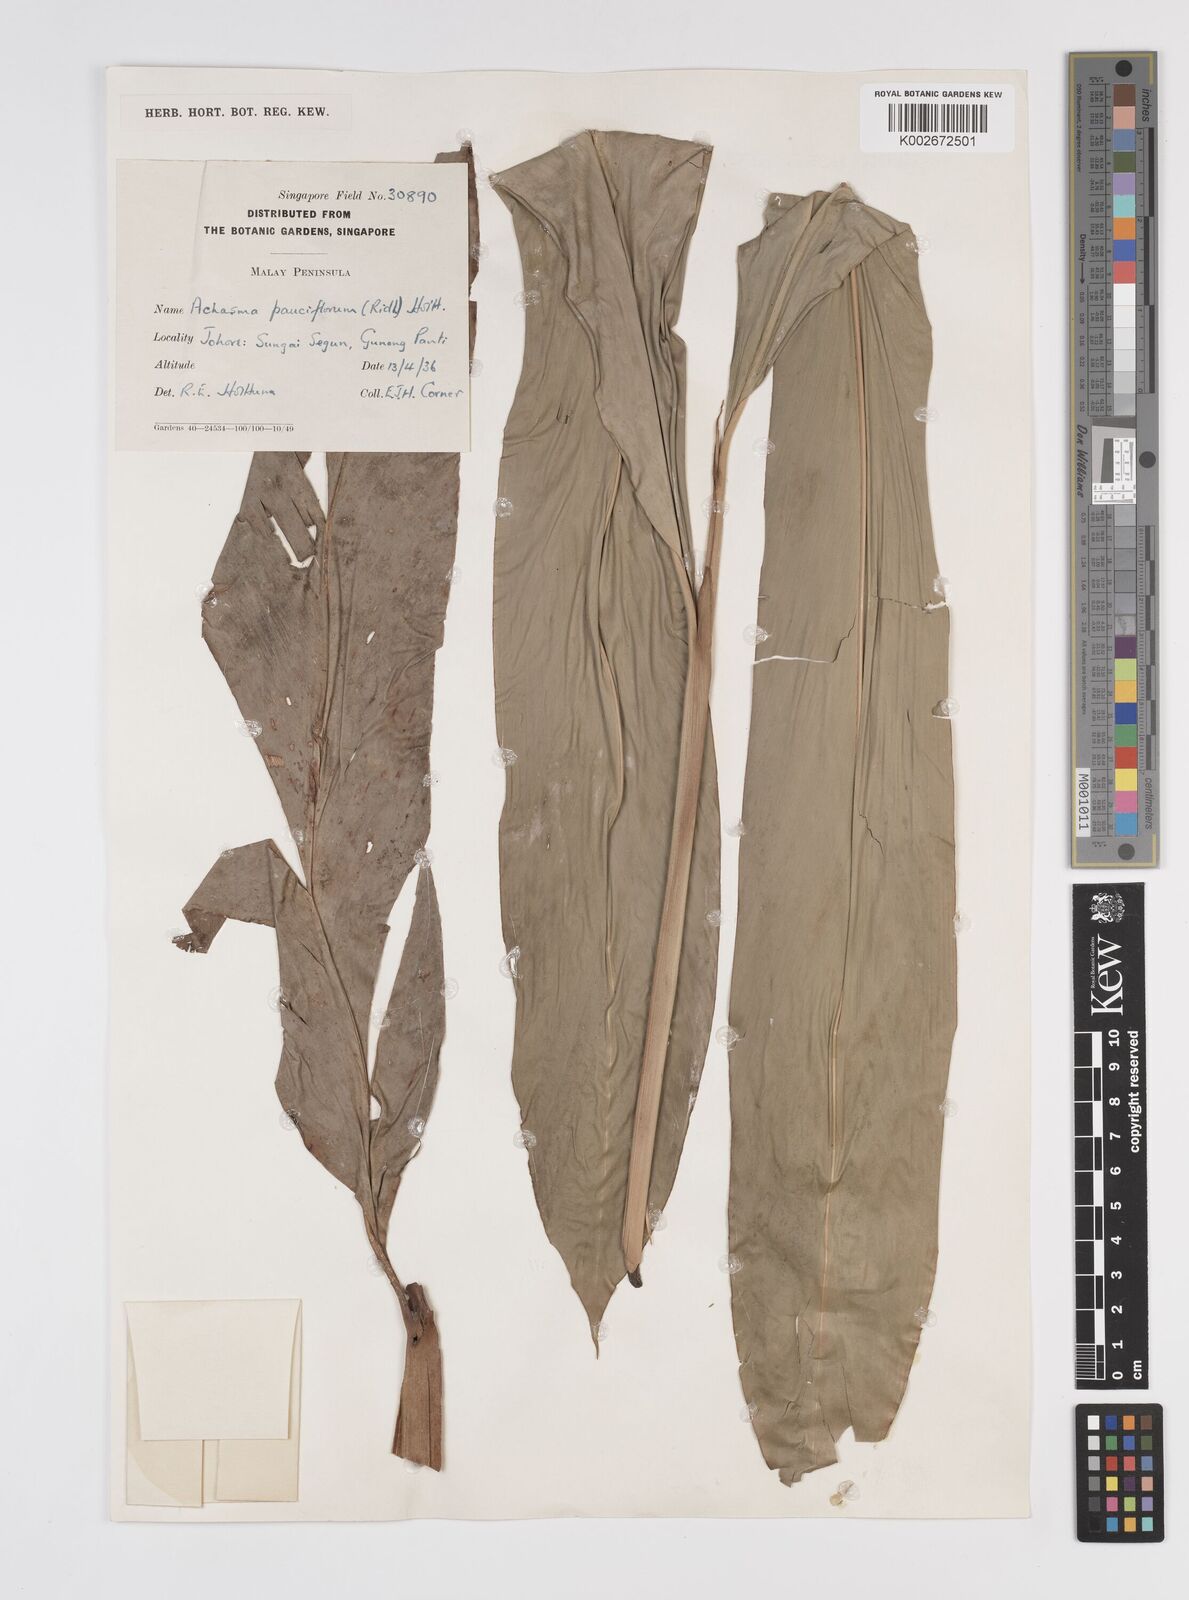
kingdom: Plantae
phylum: Tracheophyta
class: Liliopsida
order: Zingiberales
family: Zingiberaceae
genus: Etlingera
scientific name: Etlingera pauciflora
